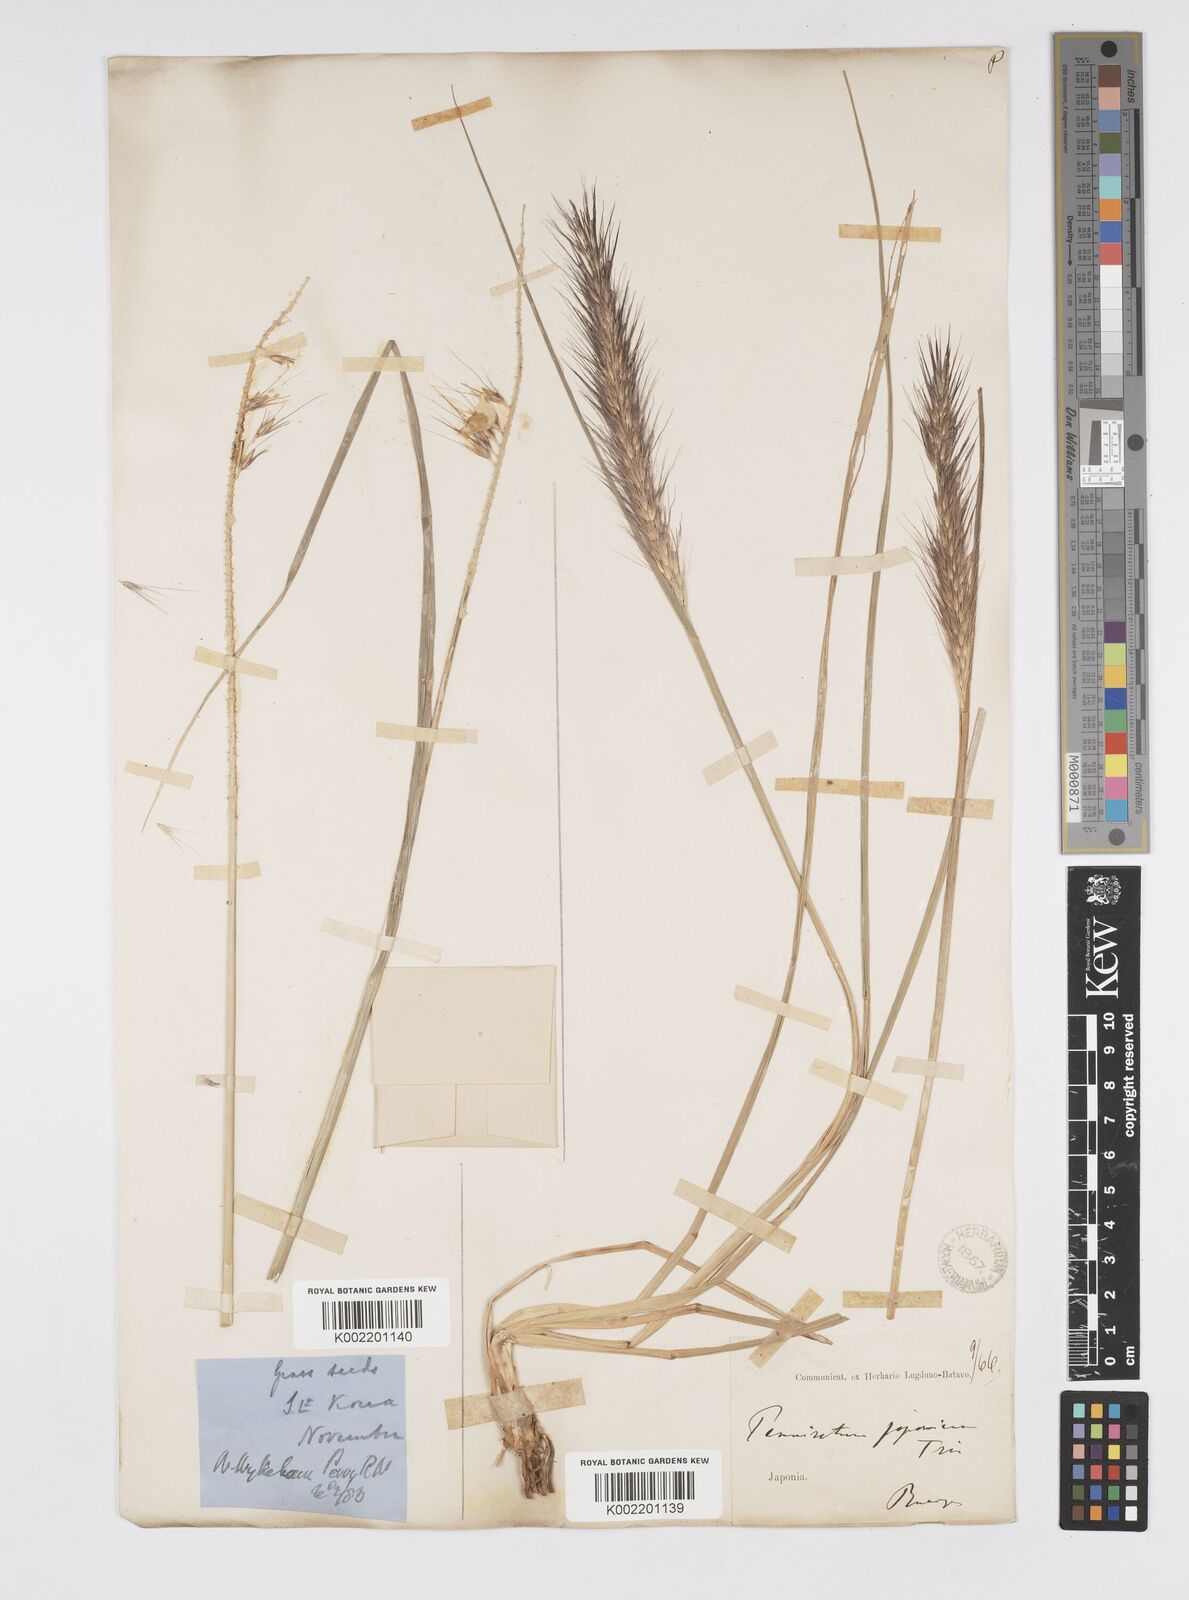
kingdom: Plantae
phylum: Tracheophyta
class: Liliopsida
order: Poales
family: Poaceae
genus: Cenchrus
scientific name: Cenchrus alopecuroides
